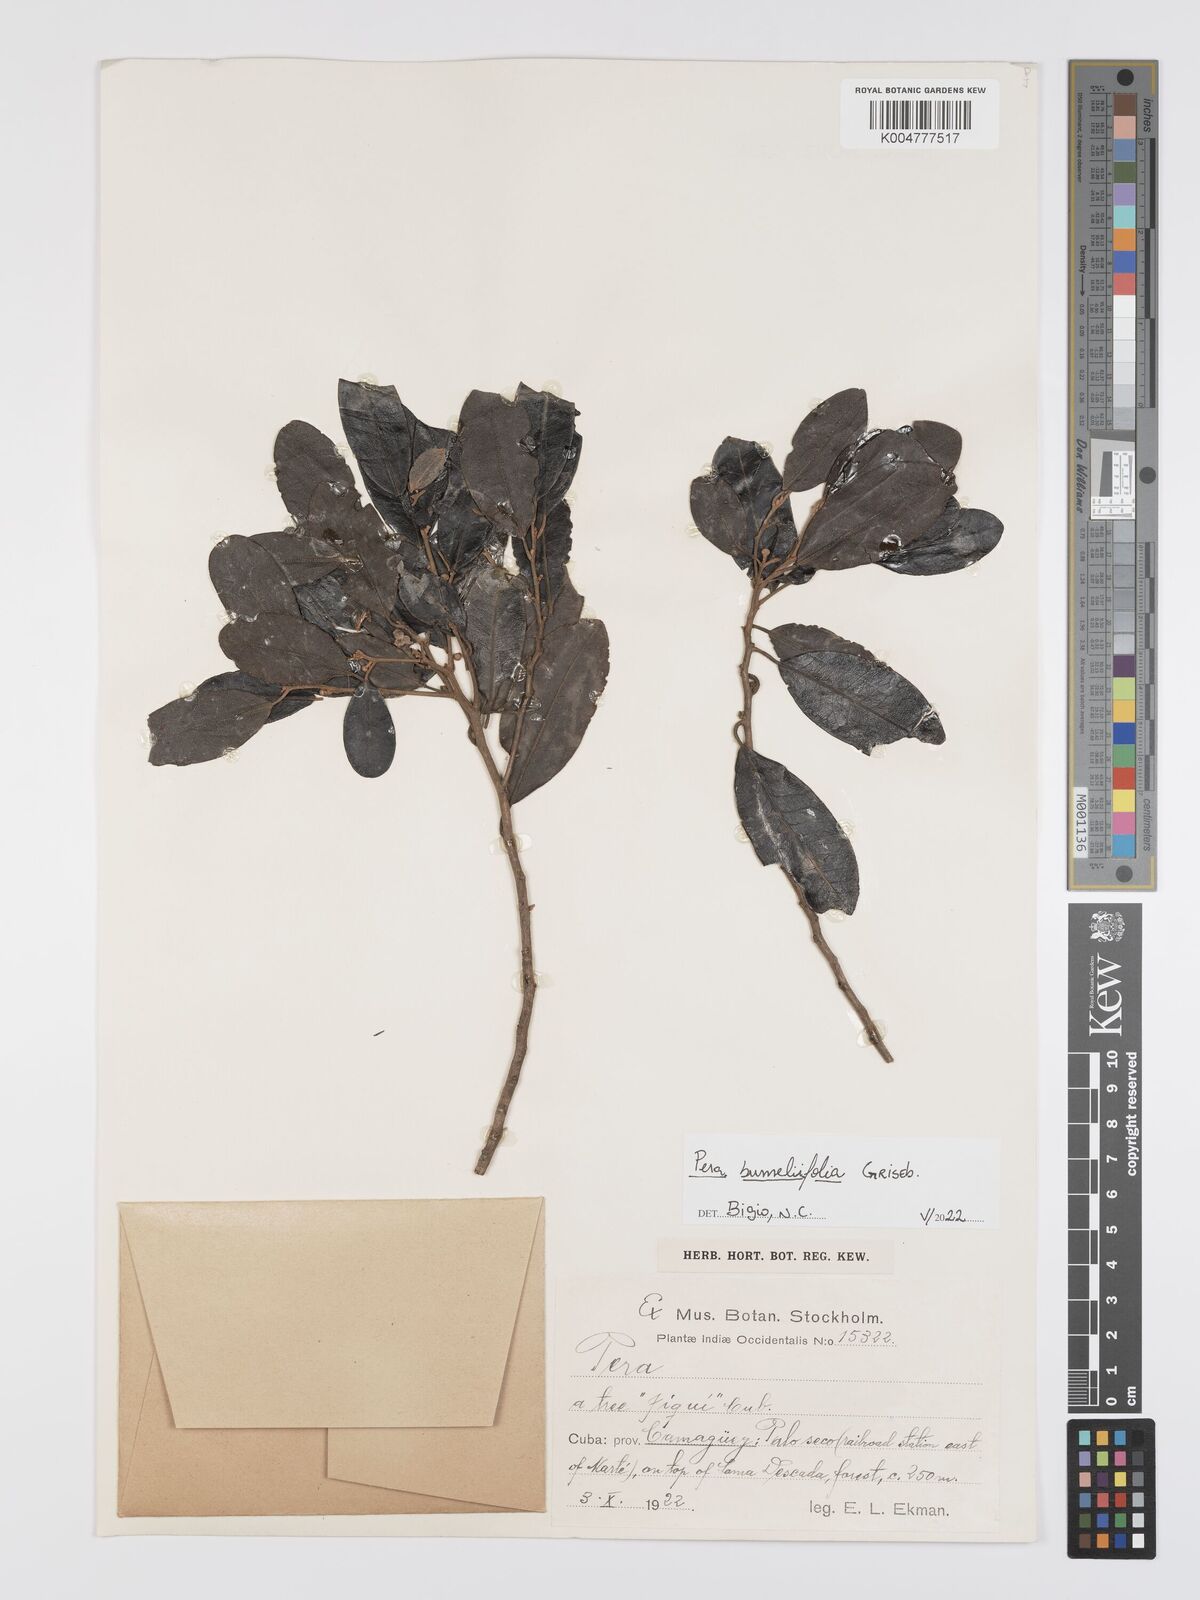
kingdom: Plantae
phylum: Tracheophyta
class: Magnoliopsida
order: Malpighiales
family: Peraceae
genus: Pera
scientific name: Pera
